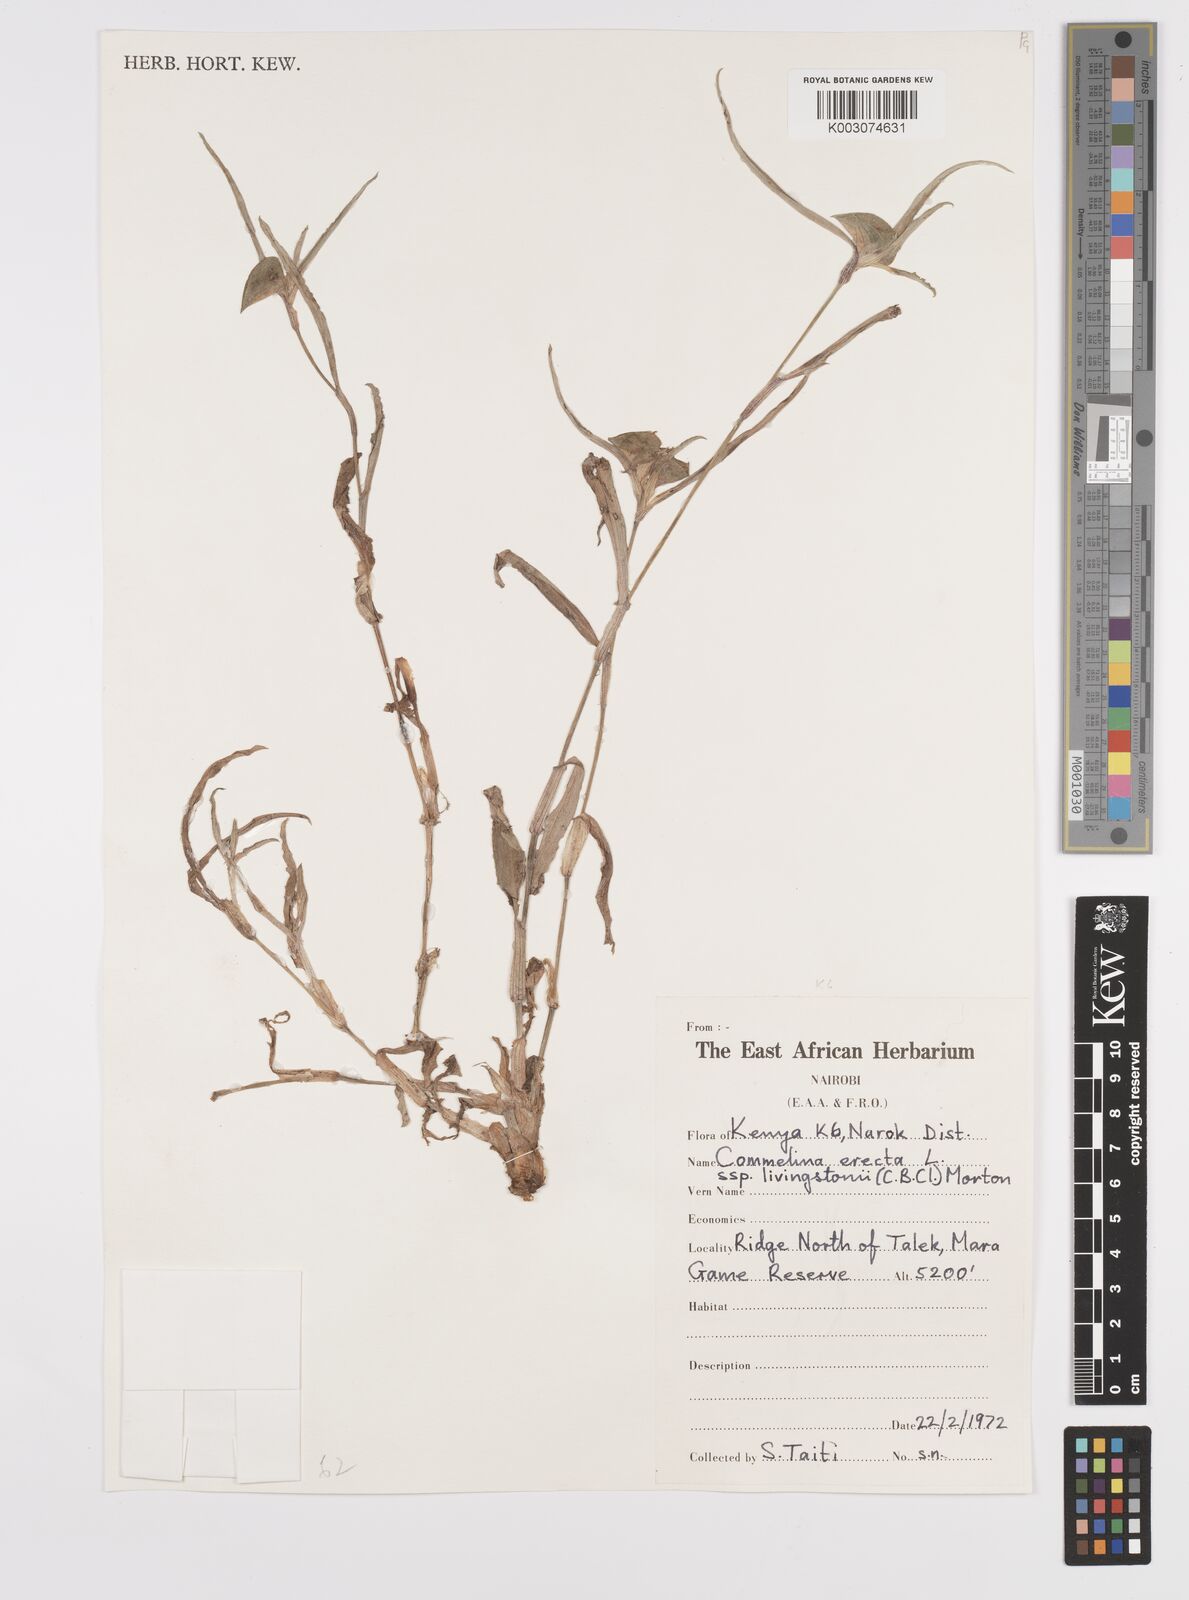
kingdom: Plantae
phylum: Tracheophyta
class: Liliopsida
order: Commelinales
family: Commelinaceae
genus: Commelina
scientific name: Commelina erecta
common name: Blousel blommetjie
